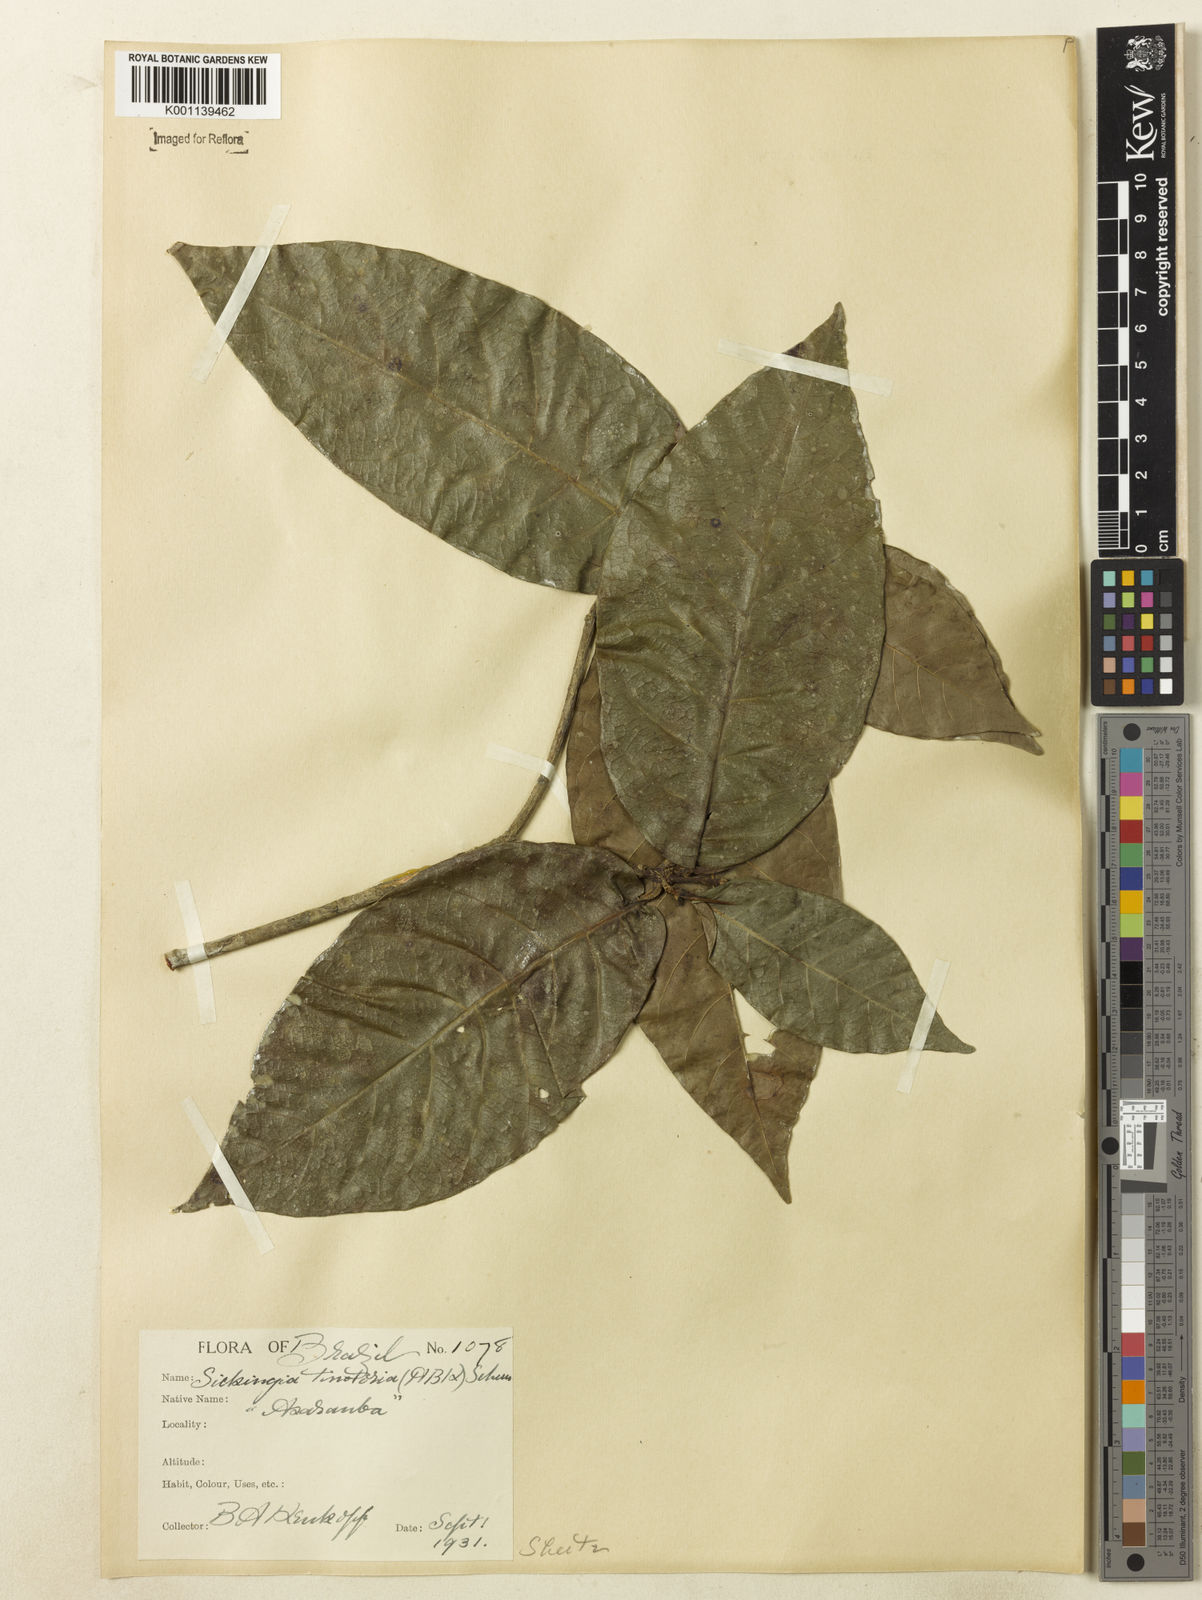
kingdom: Plantae
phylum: Tracheophyta
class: Magnoliopsida
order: Gentianales
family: Rubiaceae
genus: Simira
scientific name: Simira rubescens
